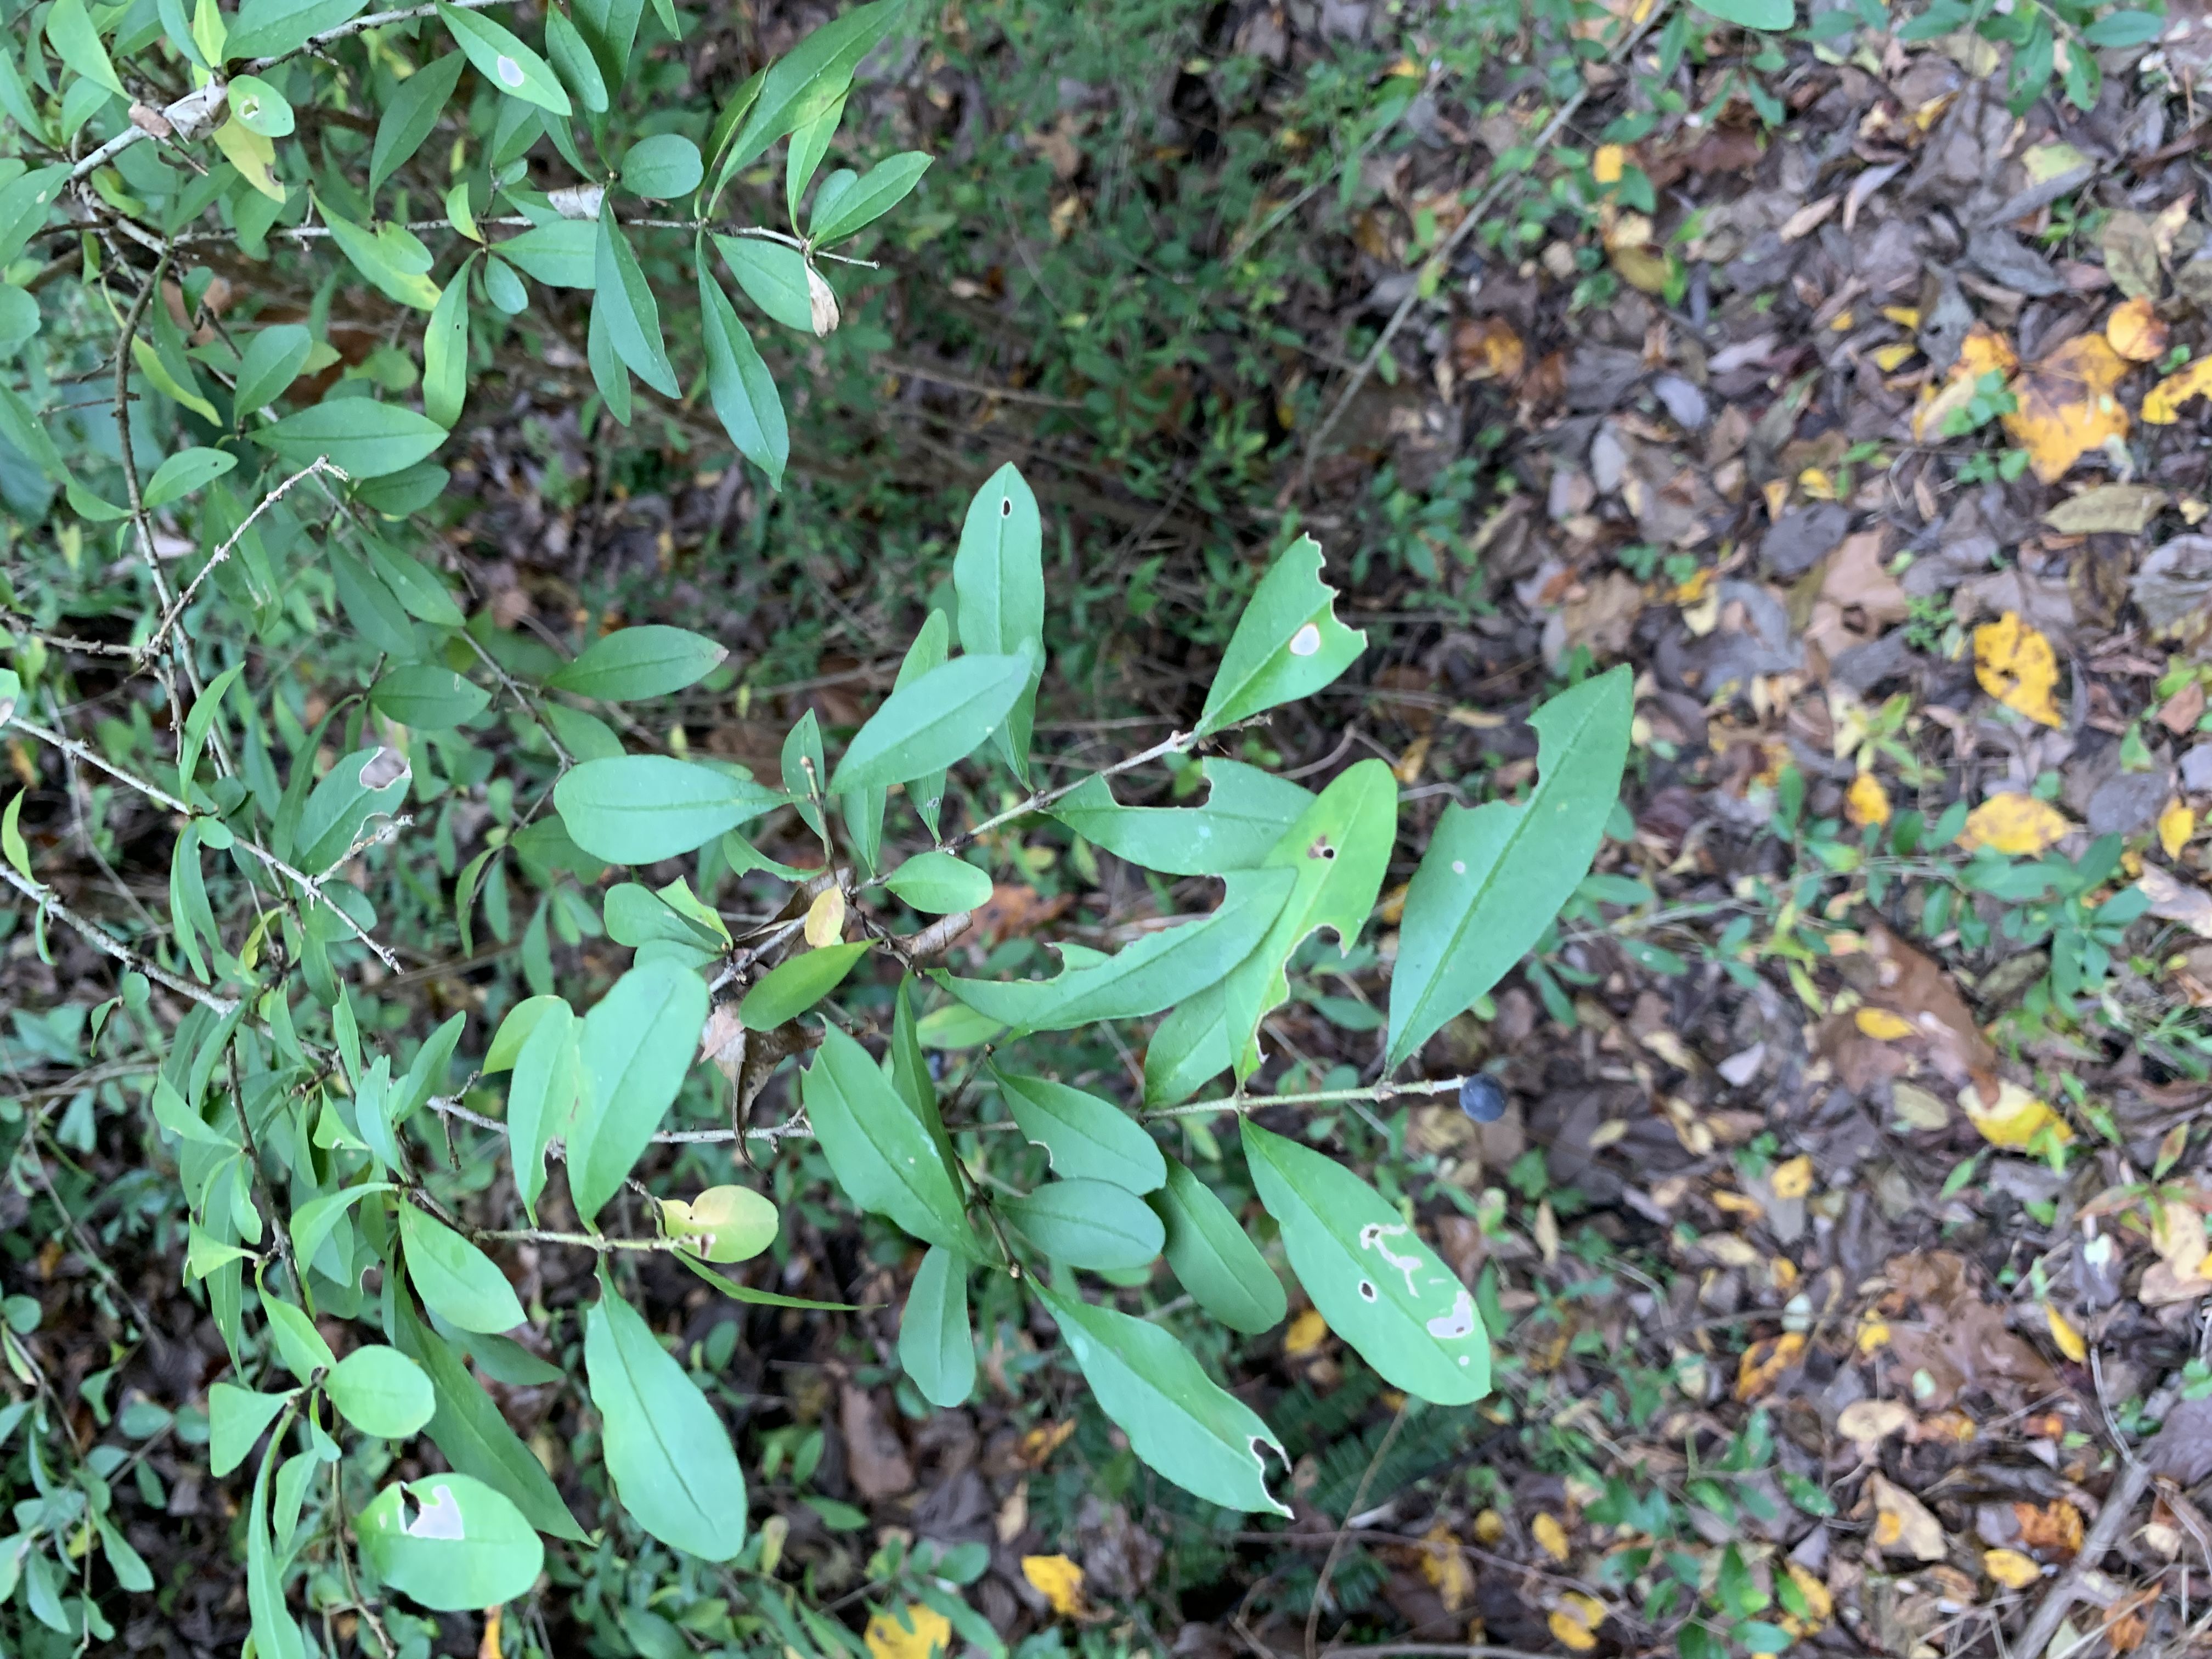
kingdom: Plantae
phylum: Tracheophyta
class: Magnoliopsida
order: Lamiales
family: Oleaceae
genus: Ligustrum
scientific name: Ligustrum obtusifolium
